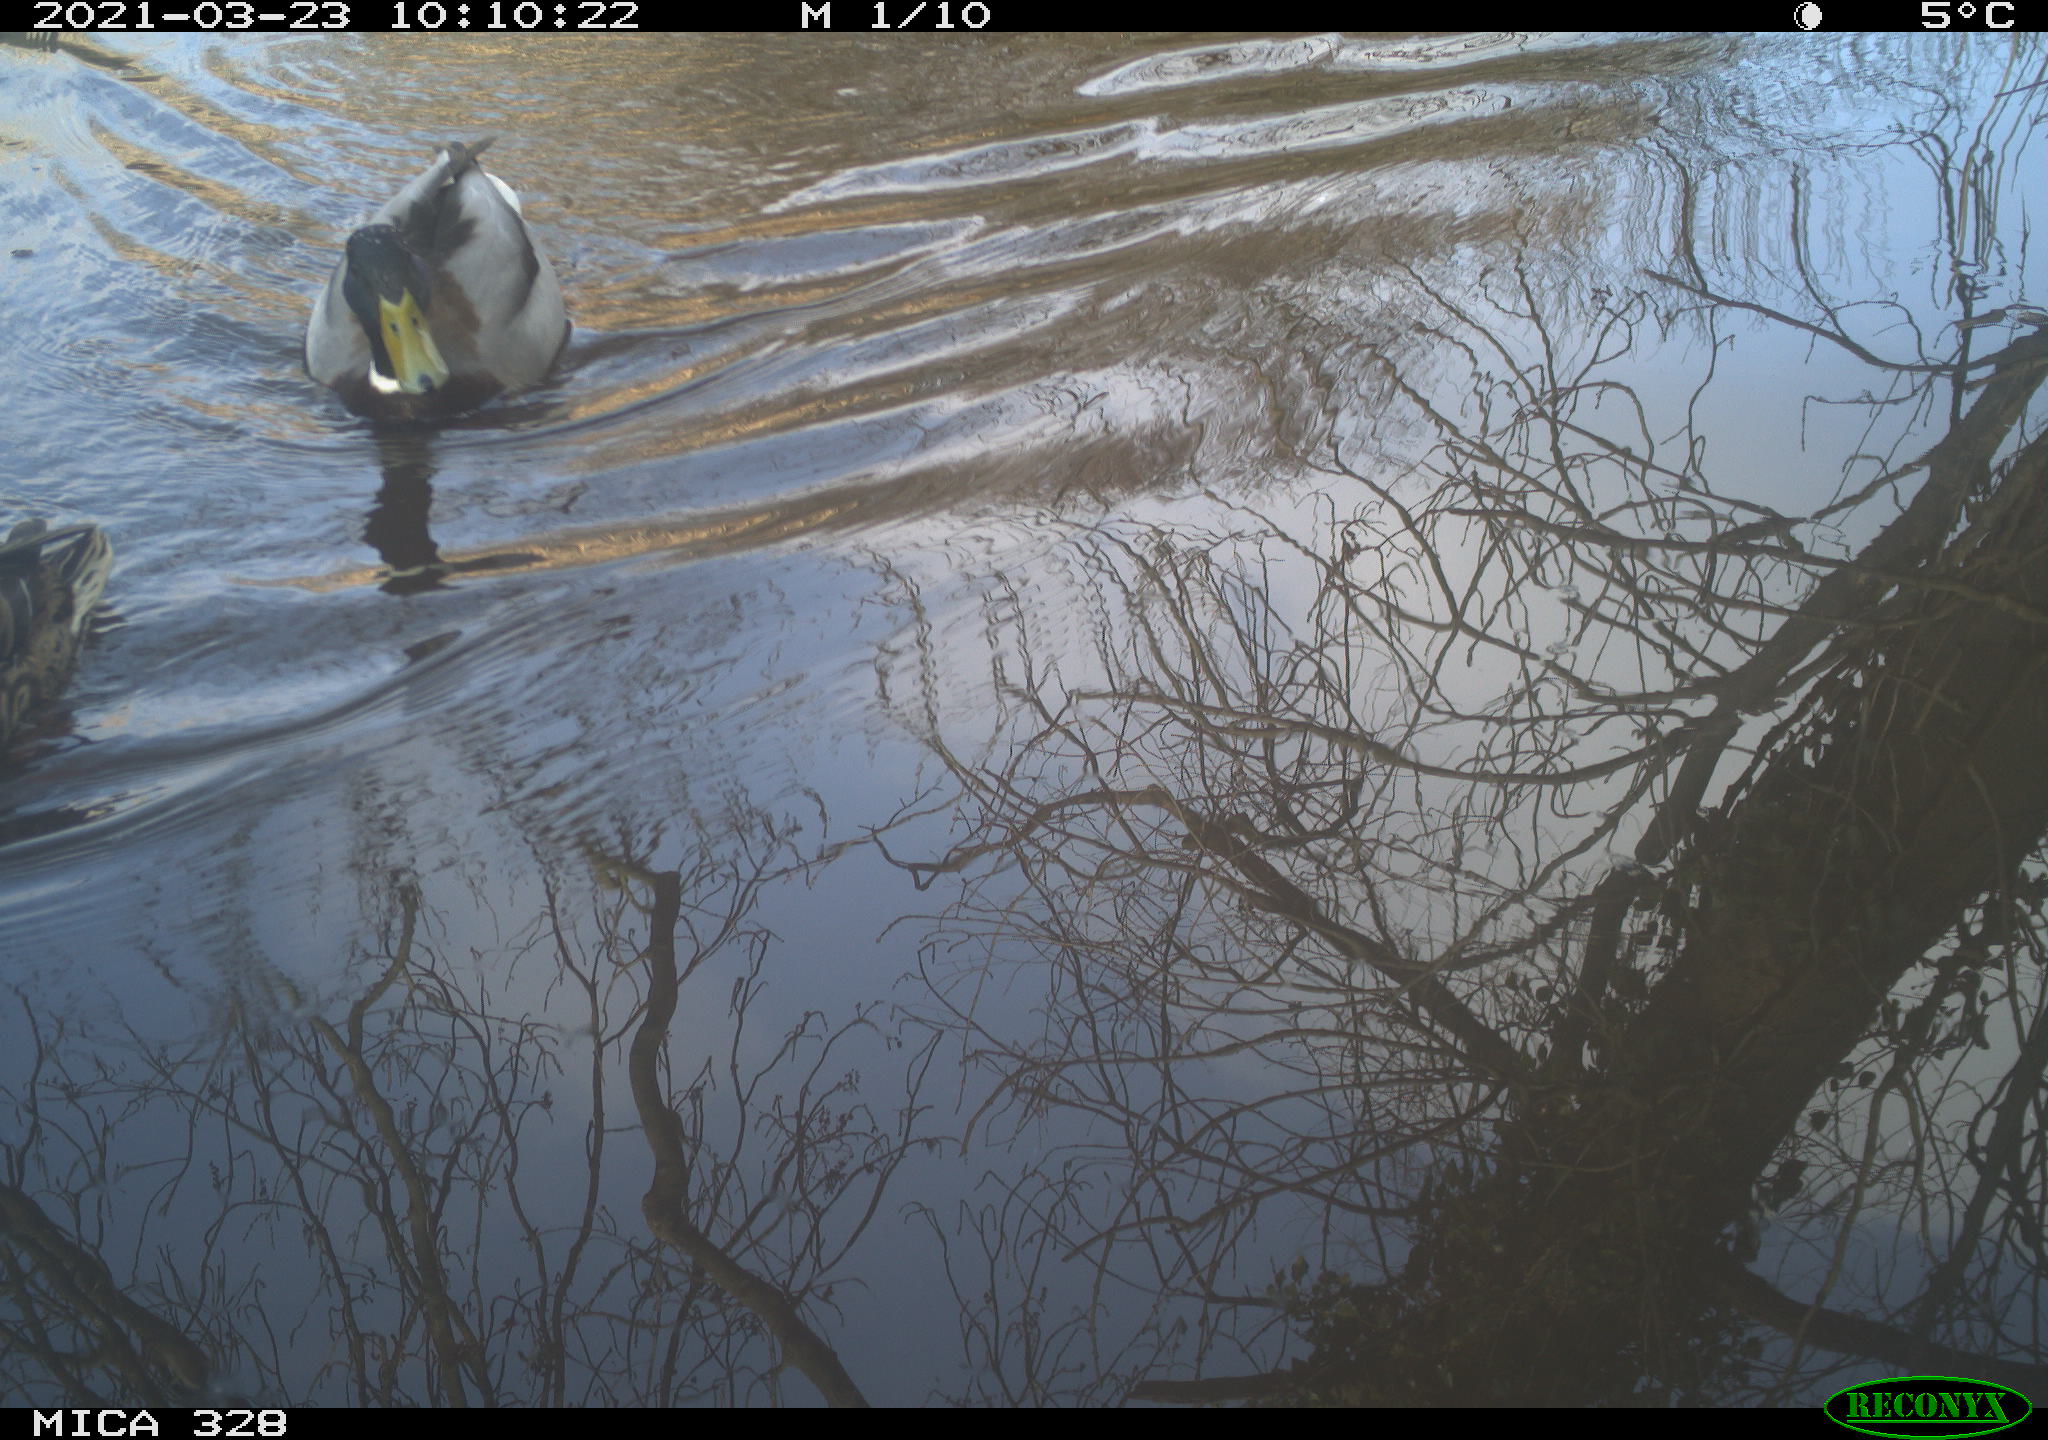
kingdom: Animalia
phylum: Chordata
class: Aves
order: Anseriformes
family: Anatidae
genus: Anas
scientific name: Anas platyrhynchos
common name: Mallard
